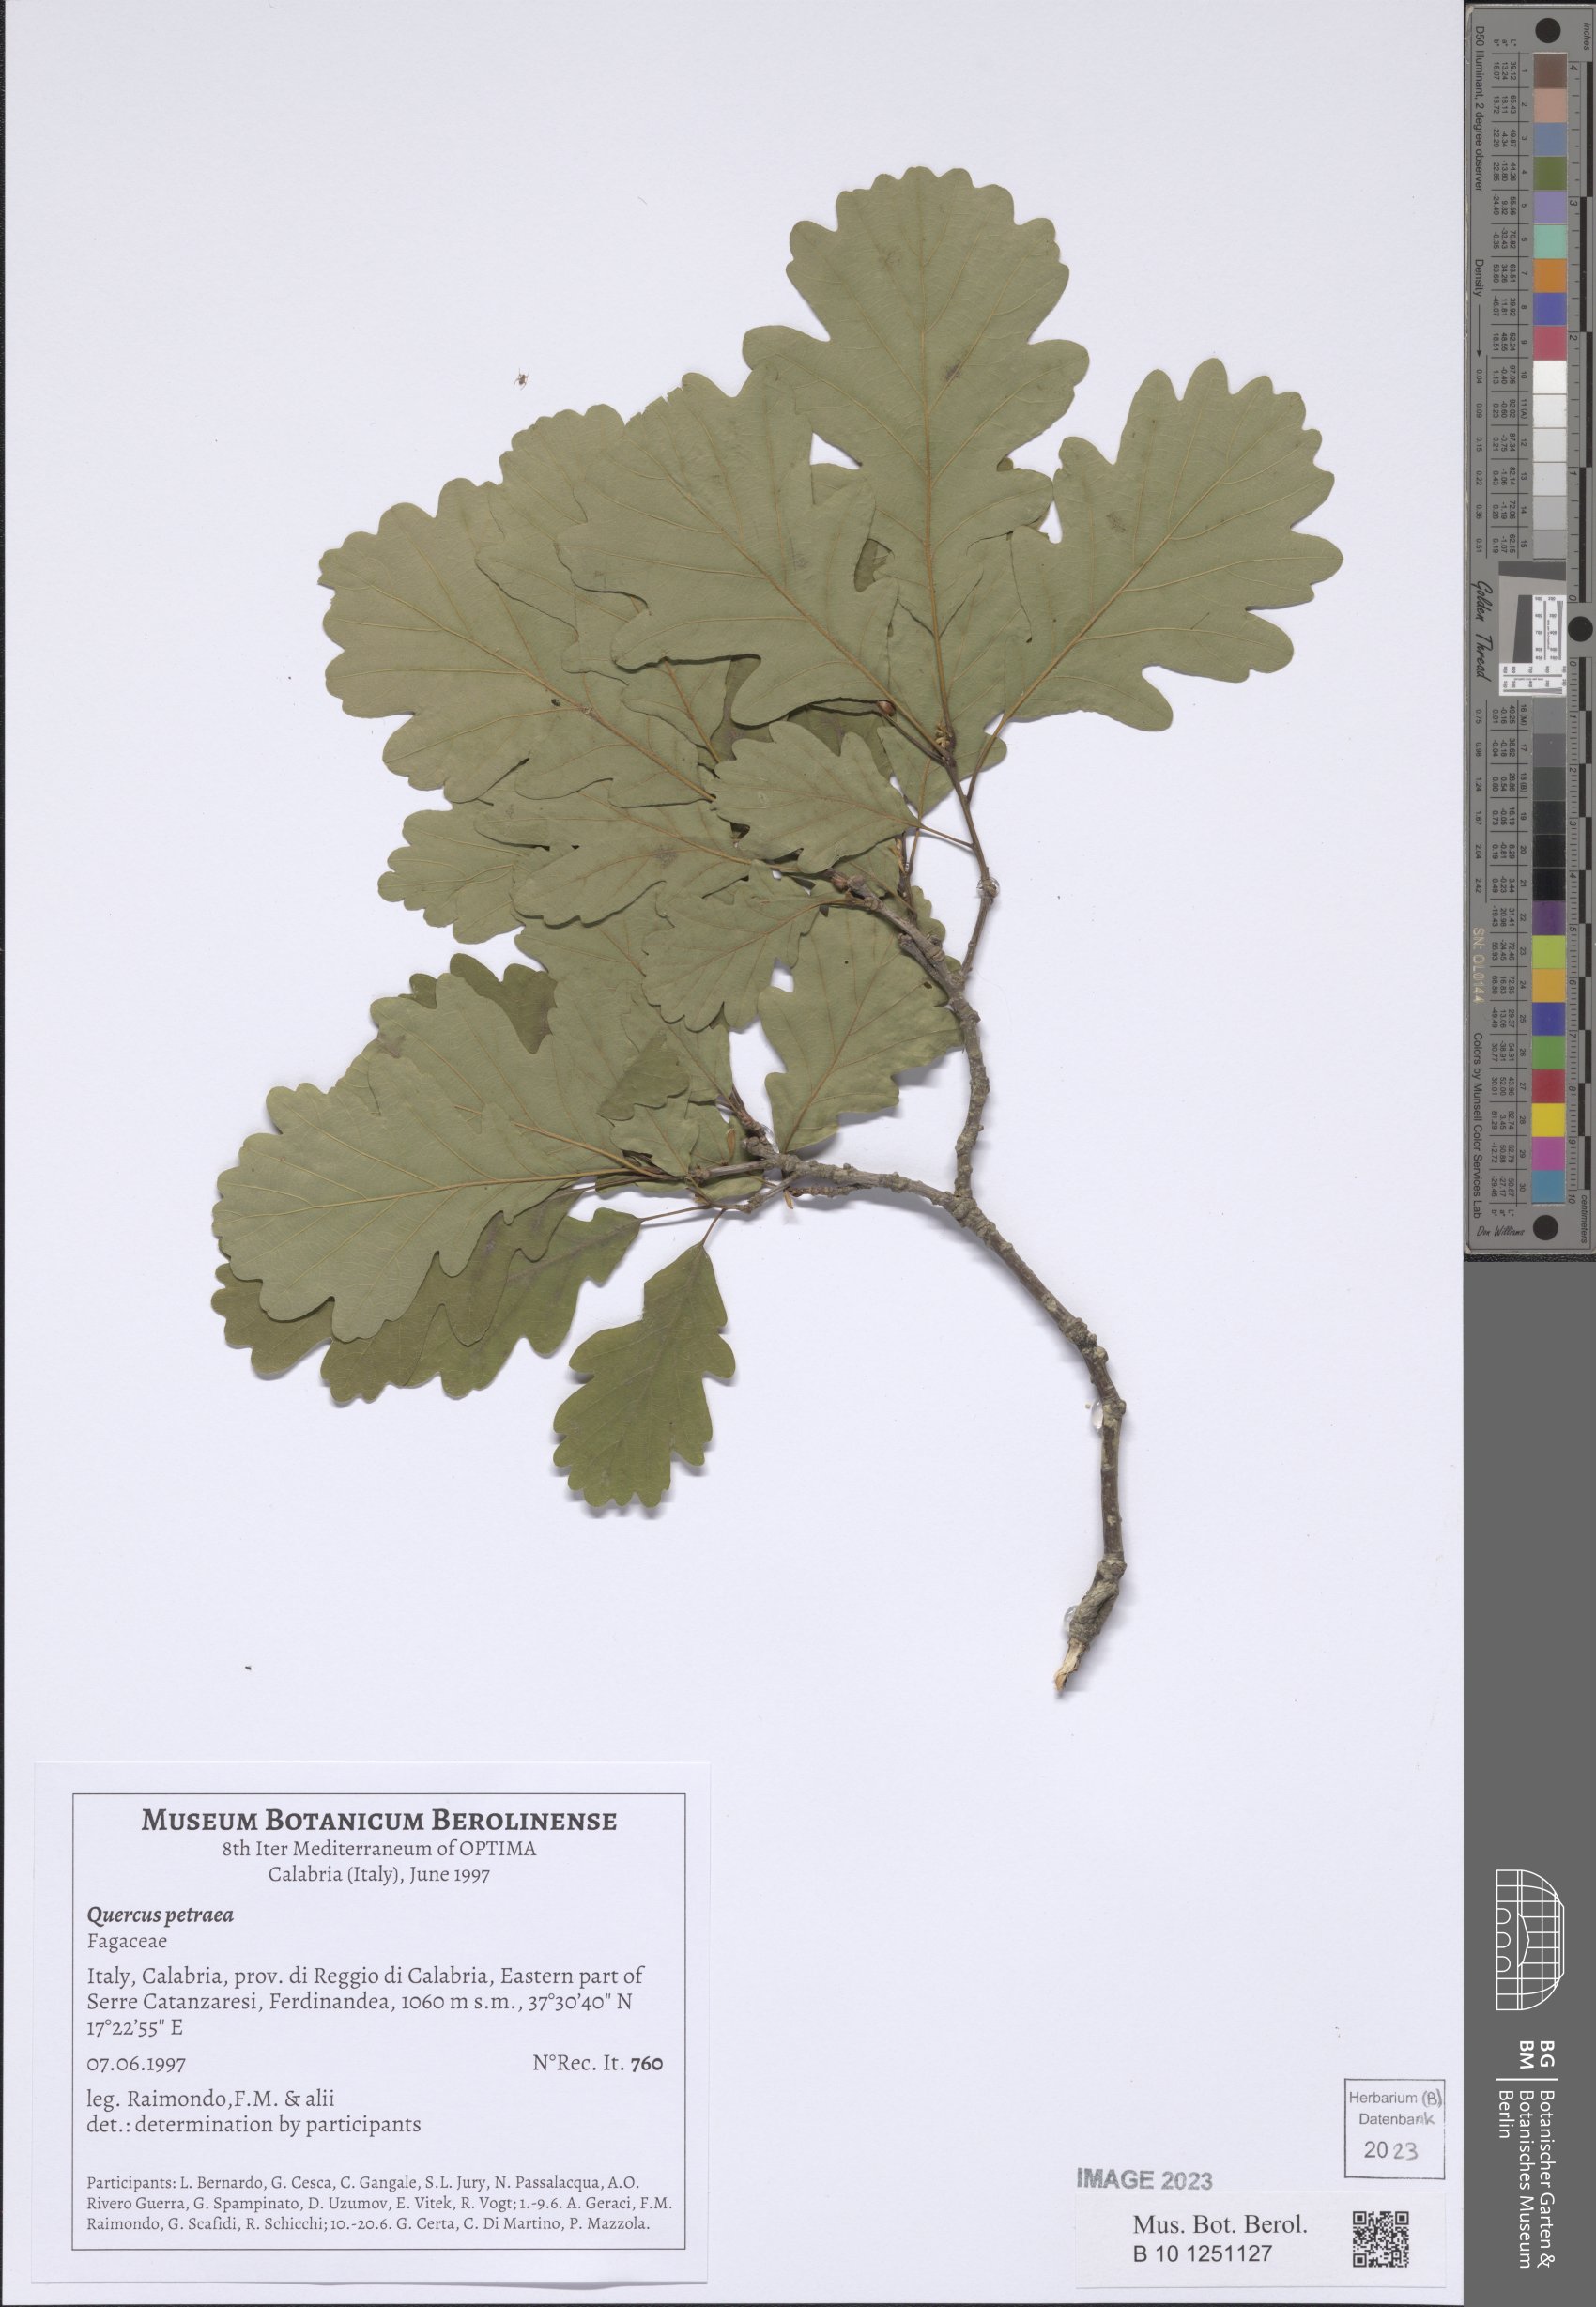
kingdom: Plantae
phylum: Tracheophyta
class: Magnoliopsida
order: Fagales
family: Fagaceae
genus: Quercus
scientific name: Quercus petraea
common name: Sessile oak
